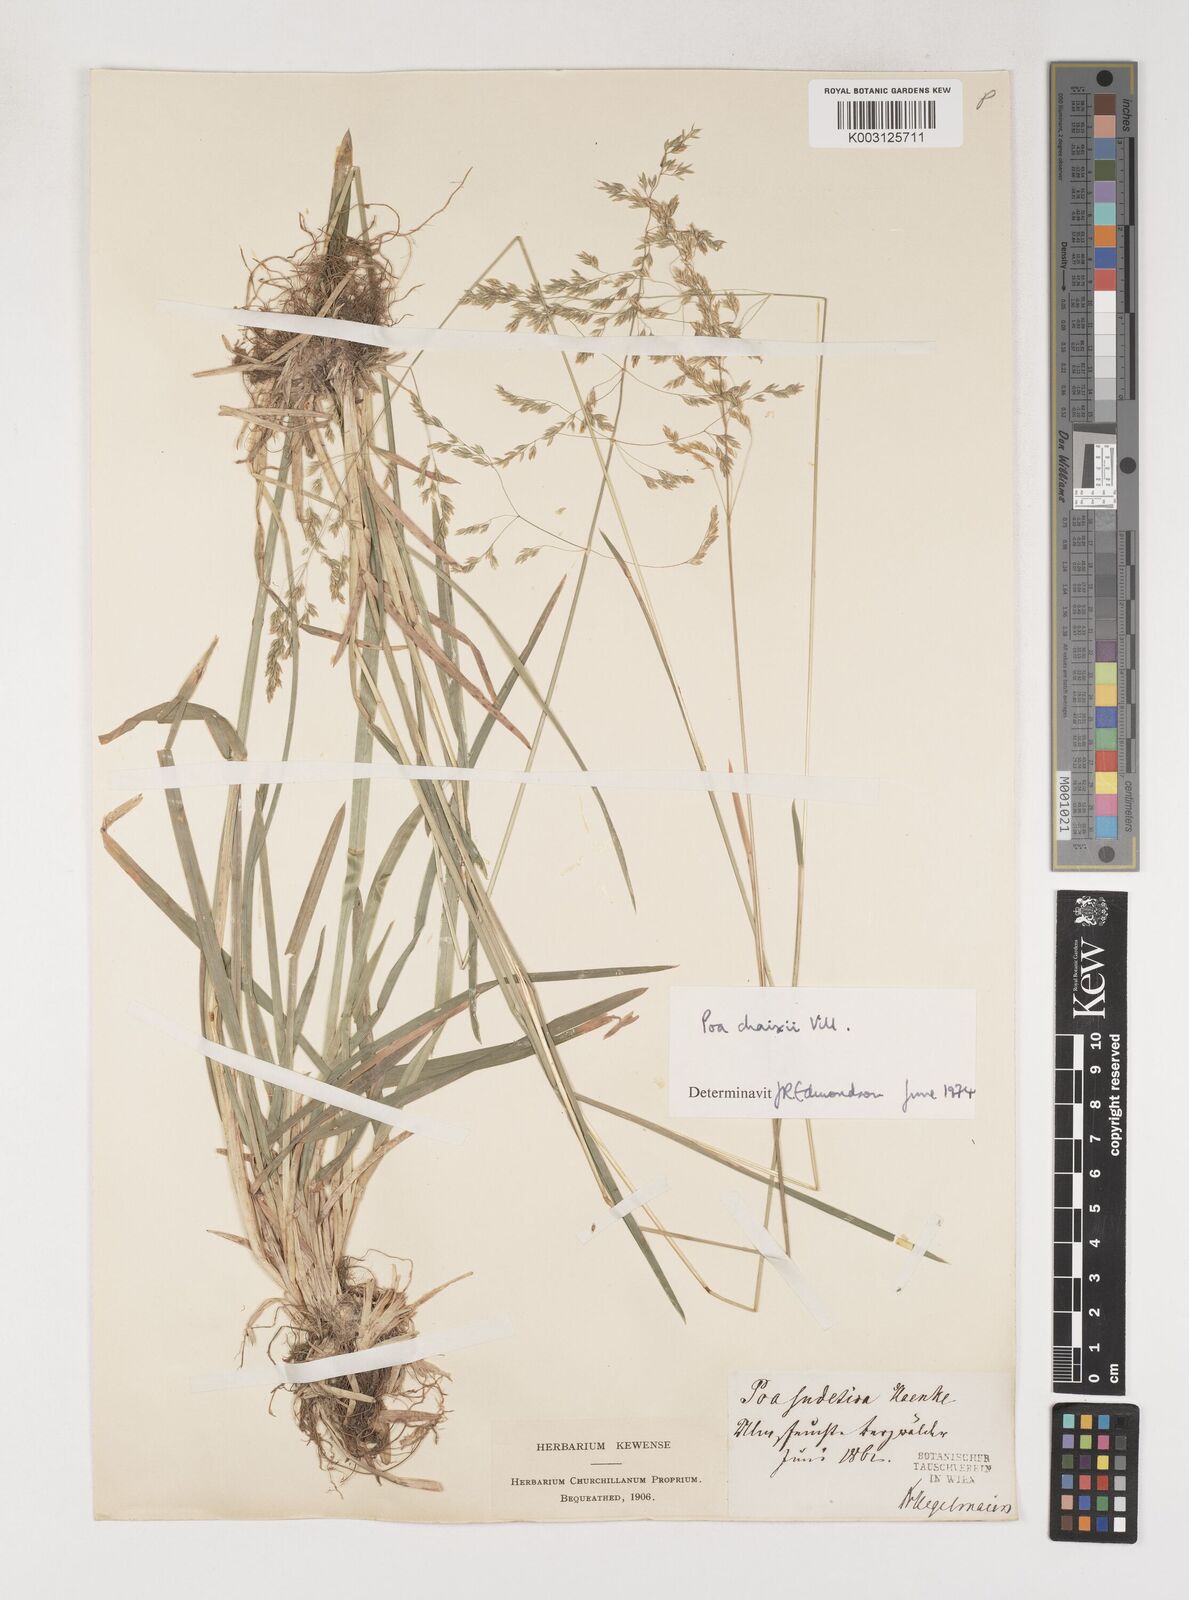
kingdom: Plantae
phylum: Tracheophyta
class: Liliopsida
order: Poales
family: Poaceae
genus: Poa
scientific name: Poa chaixii
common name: Broad-leaved meadow-grass
